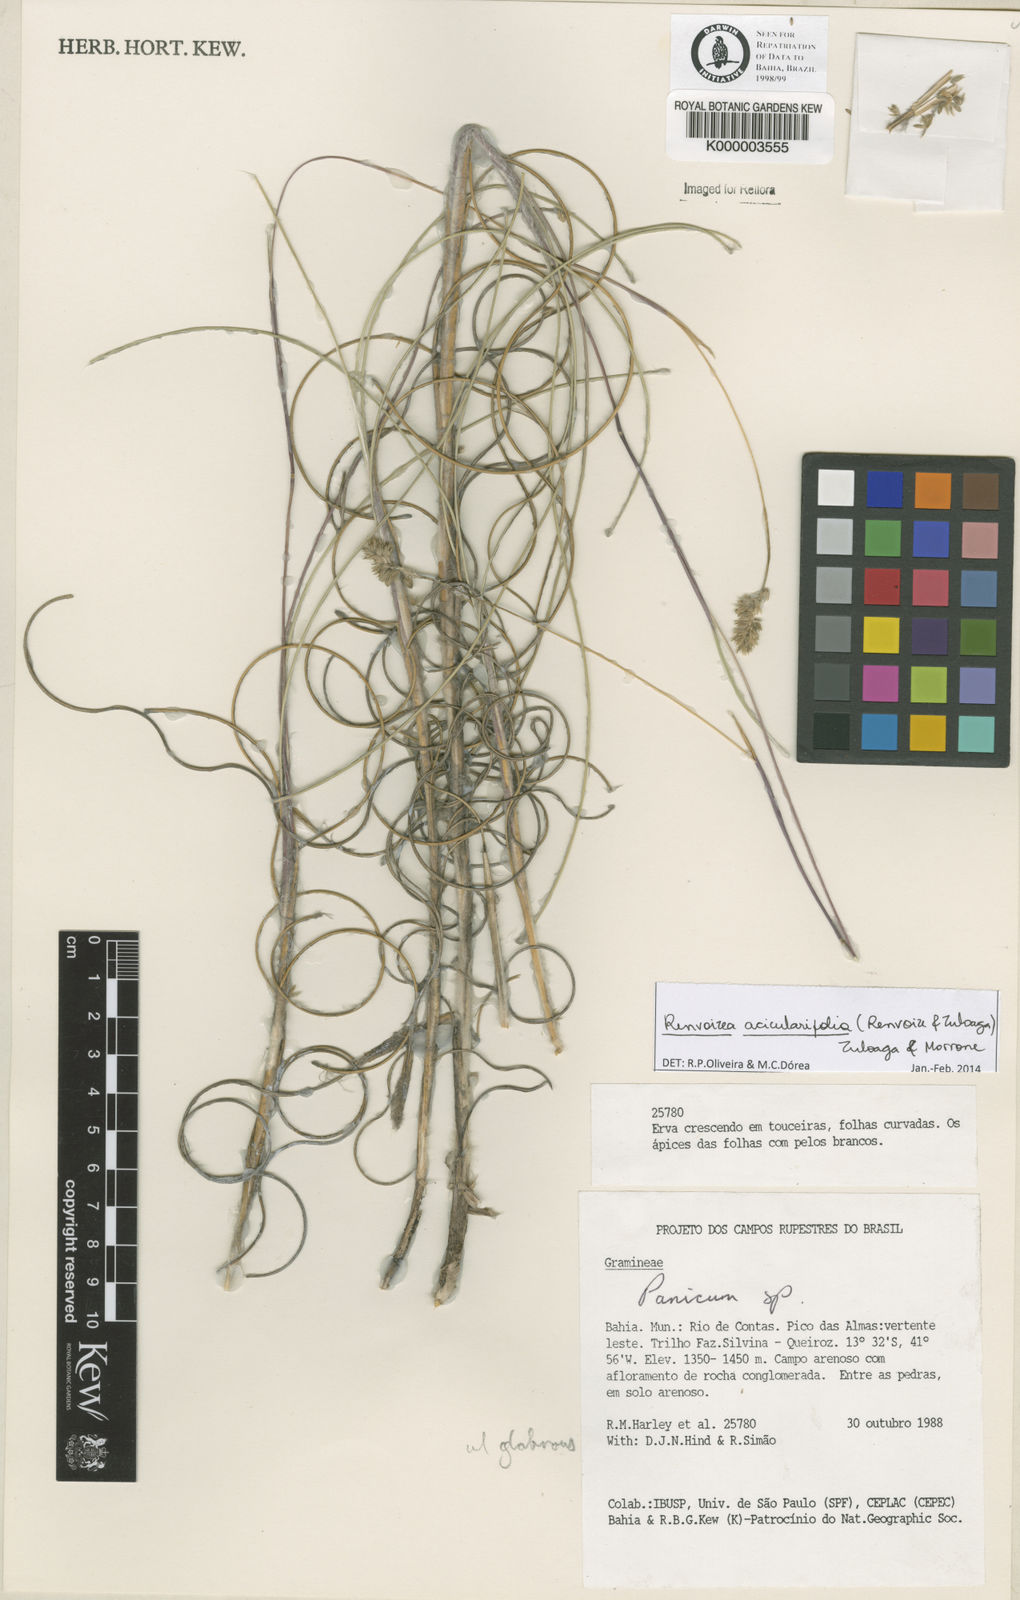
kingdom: Plantae
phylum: Tracheophyta
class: Liliopsida
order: Poales
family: Poaceae
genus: Renvoizea
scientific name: Renvoizea acicularifolia
